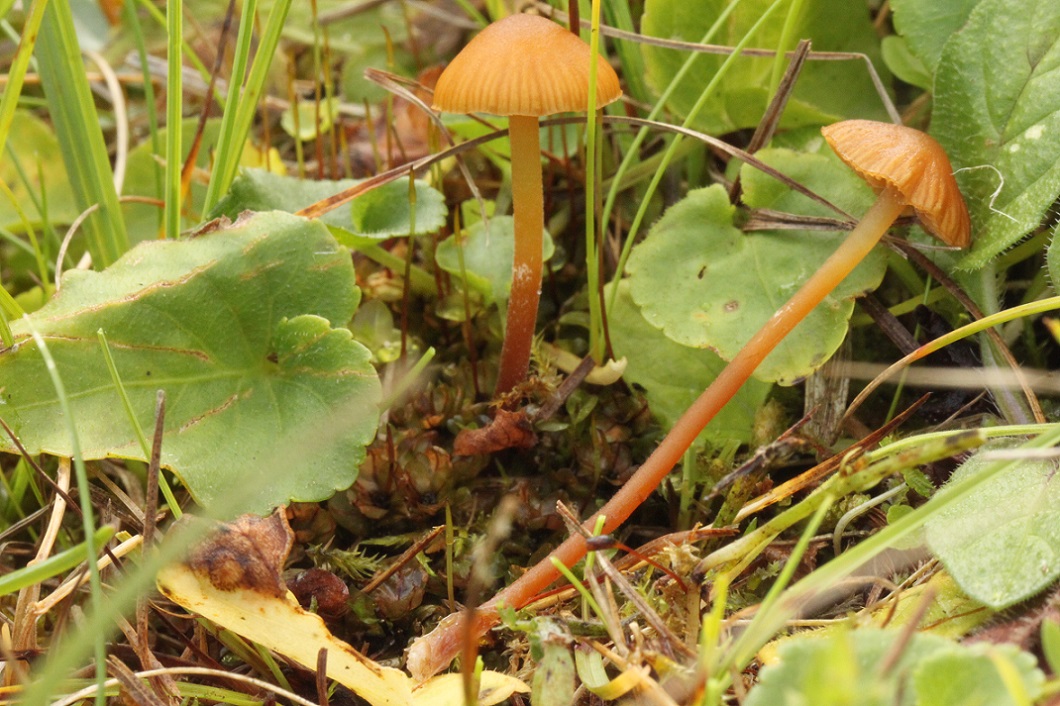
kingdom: Fungi
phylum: Basidiomycota
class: Agaricomycetes
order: Agaricales
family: Hymenogastraceae
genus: Galerina
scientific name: Galerina jaapii
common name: hvidbæltet hjelmhat
